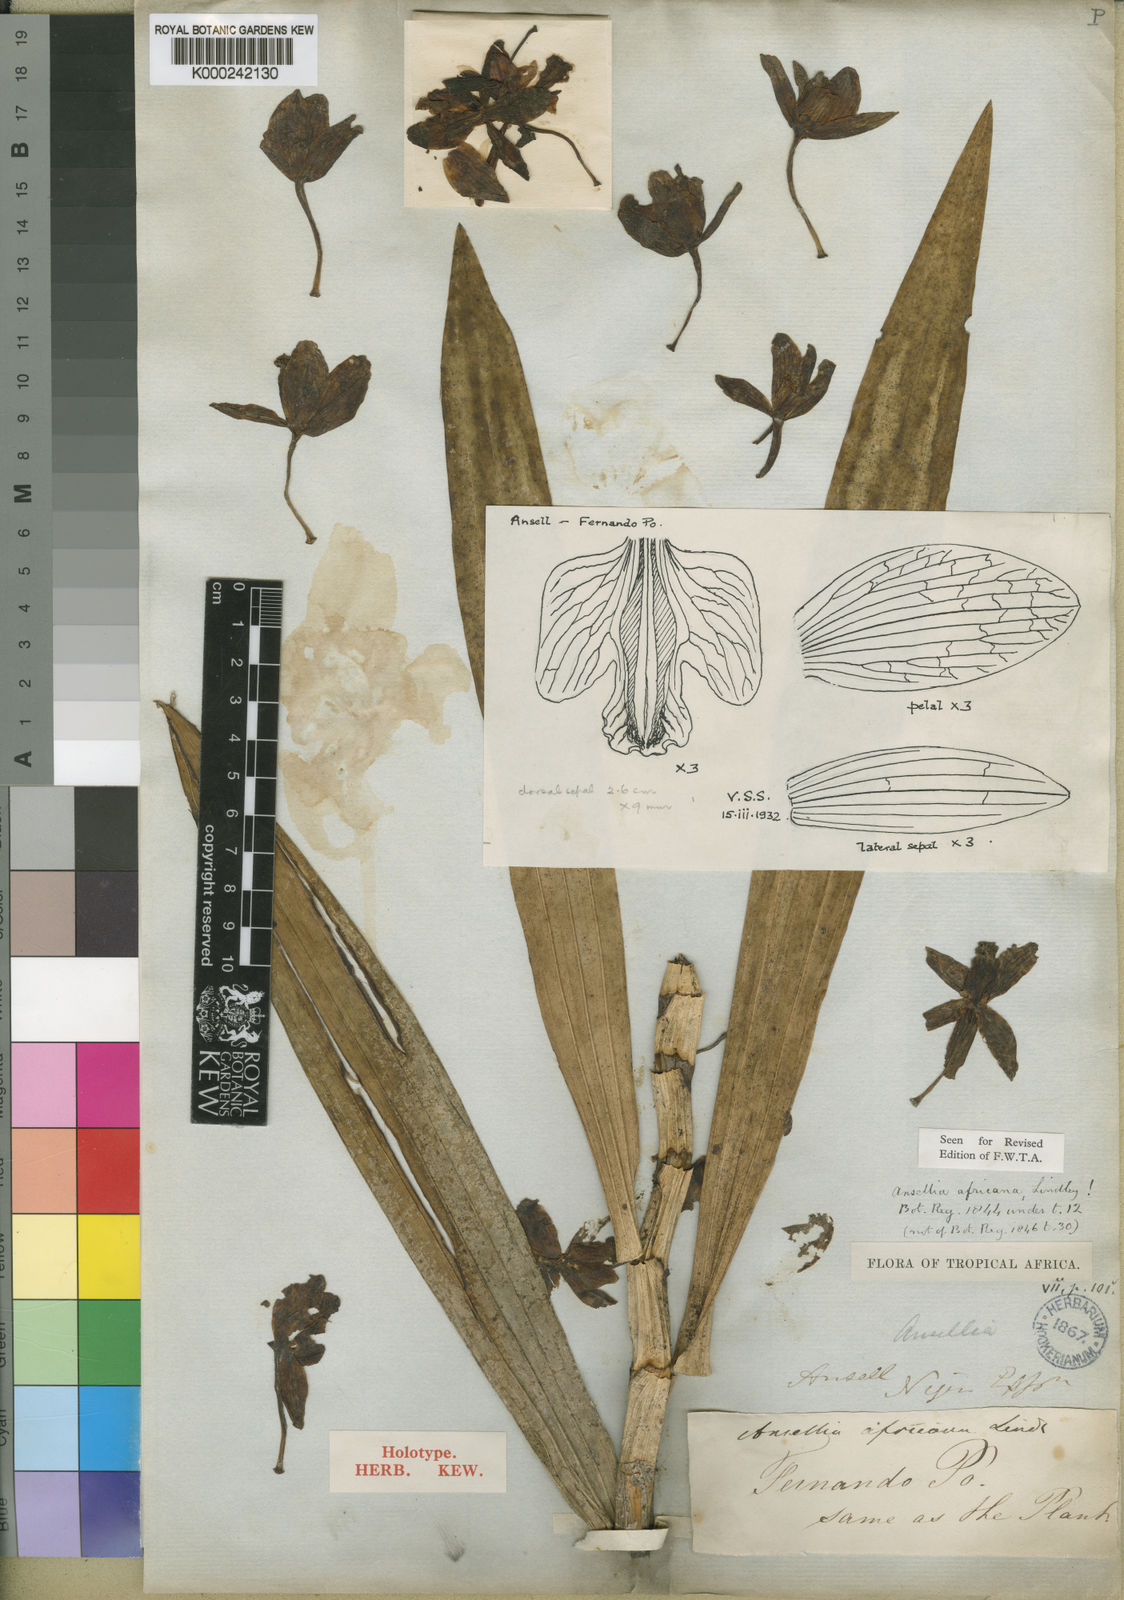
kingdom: Plantae
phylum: Tracheophyta
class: Liliopsida
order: Asparagales
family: Orchidaceae
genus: Ansellia
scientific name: Ansellia africana
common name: African ansellia
